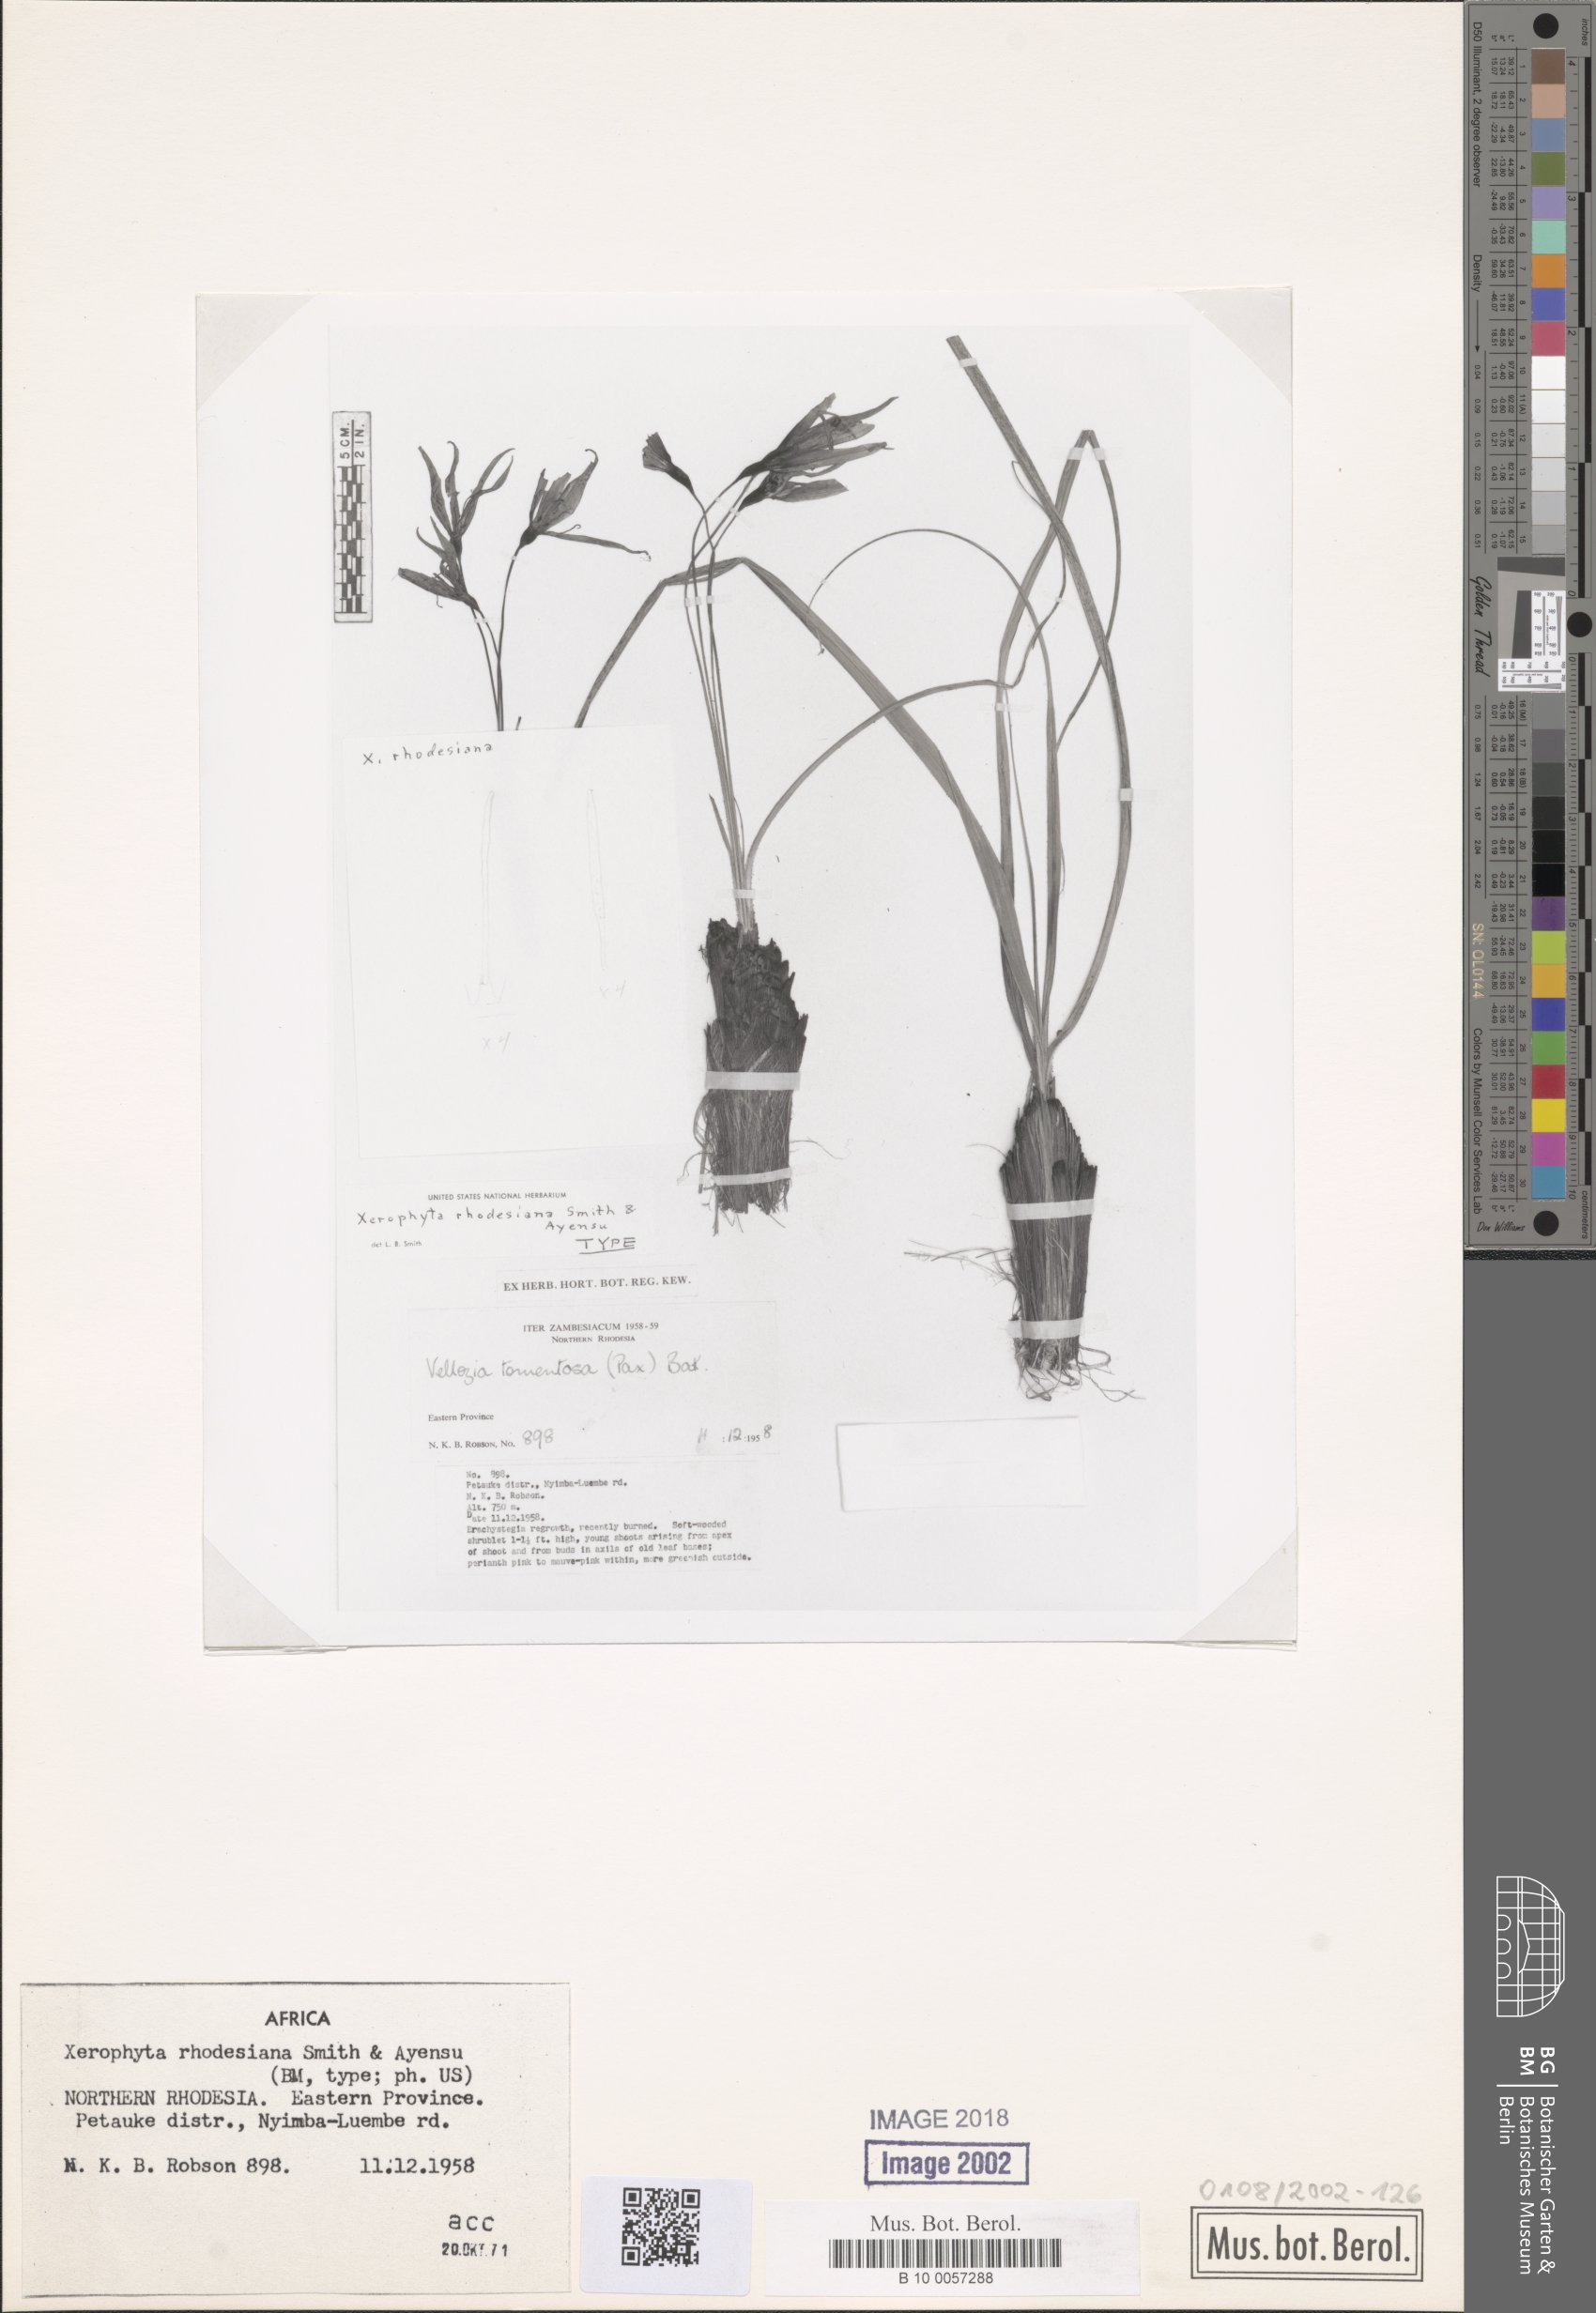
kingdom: Plantae
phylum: Tracheophyta
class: Liliopsida
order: Pandanales
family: Velloziaceae
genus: Xerophyta
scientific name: Xerophyta
